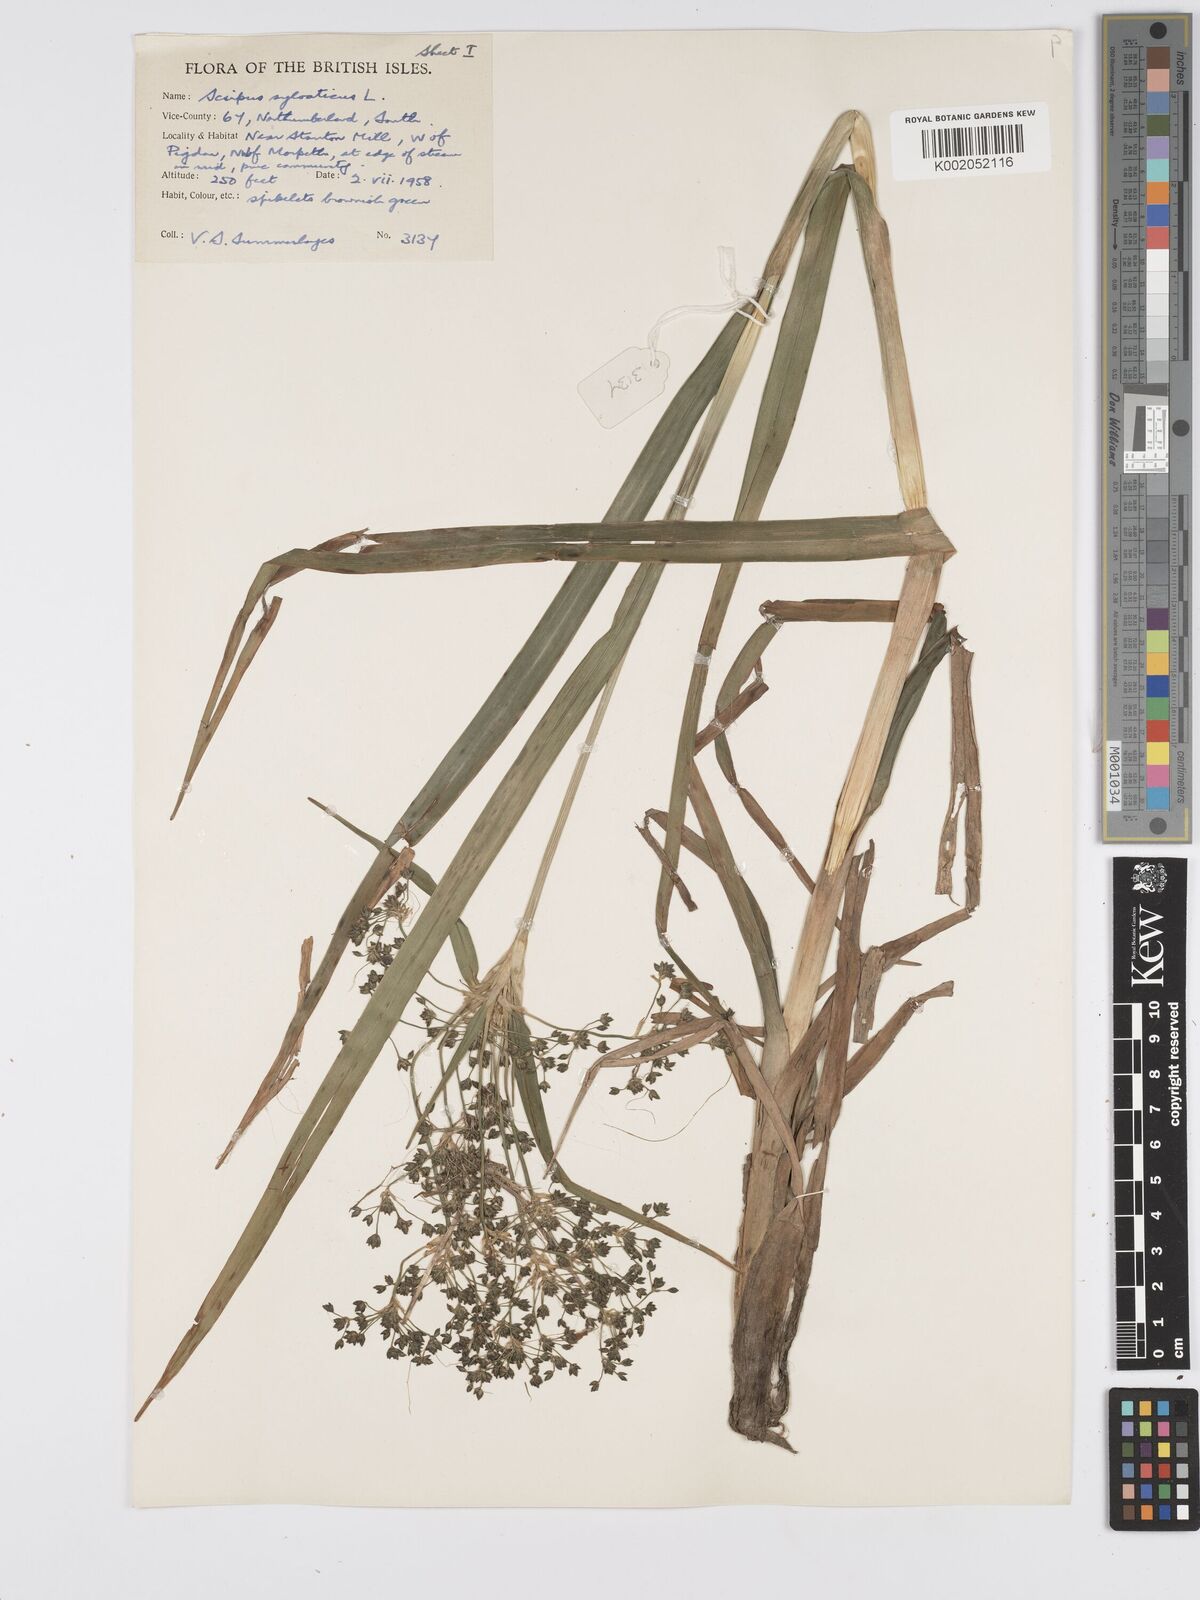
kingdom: Plantae
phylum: Tracheophyta
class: Liliopsida
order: Poales
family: Cyperaceae
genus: Scirpus
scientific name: Scirpus sylvaticus
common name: Wood club-rush
